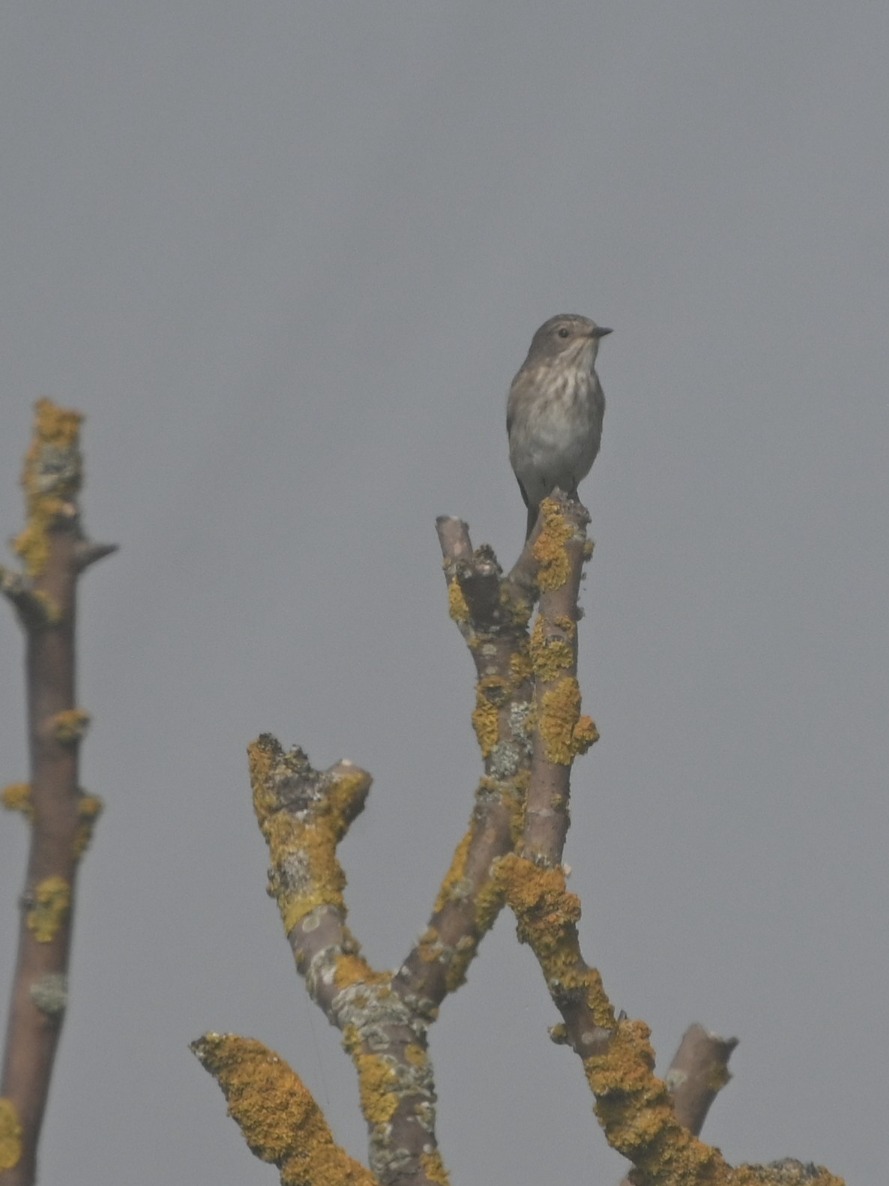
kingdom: Animalia
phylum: Chordata
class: Aves
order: Passeriformes
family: Muscicapidae
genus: Muscicapa
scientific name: Muscicapa striata
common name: Grå fluesnapper
